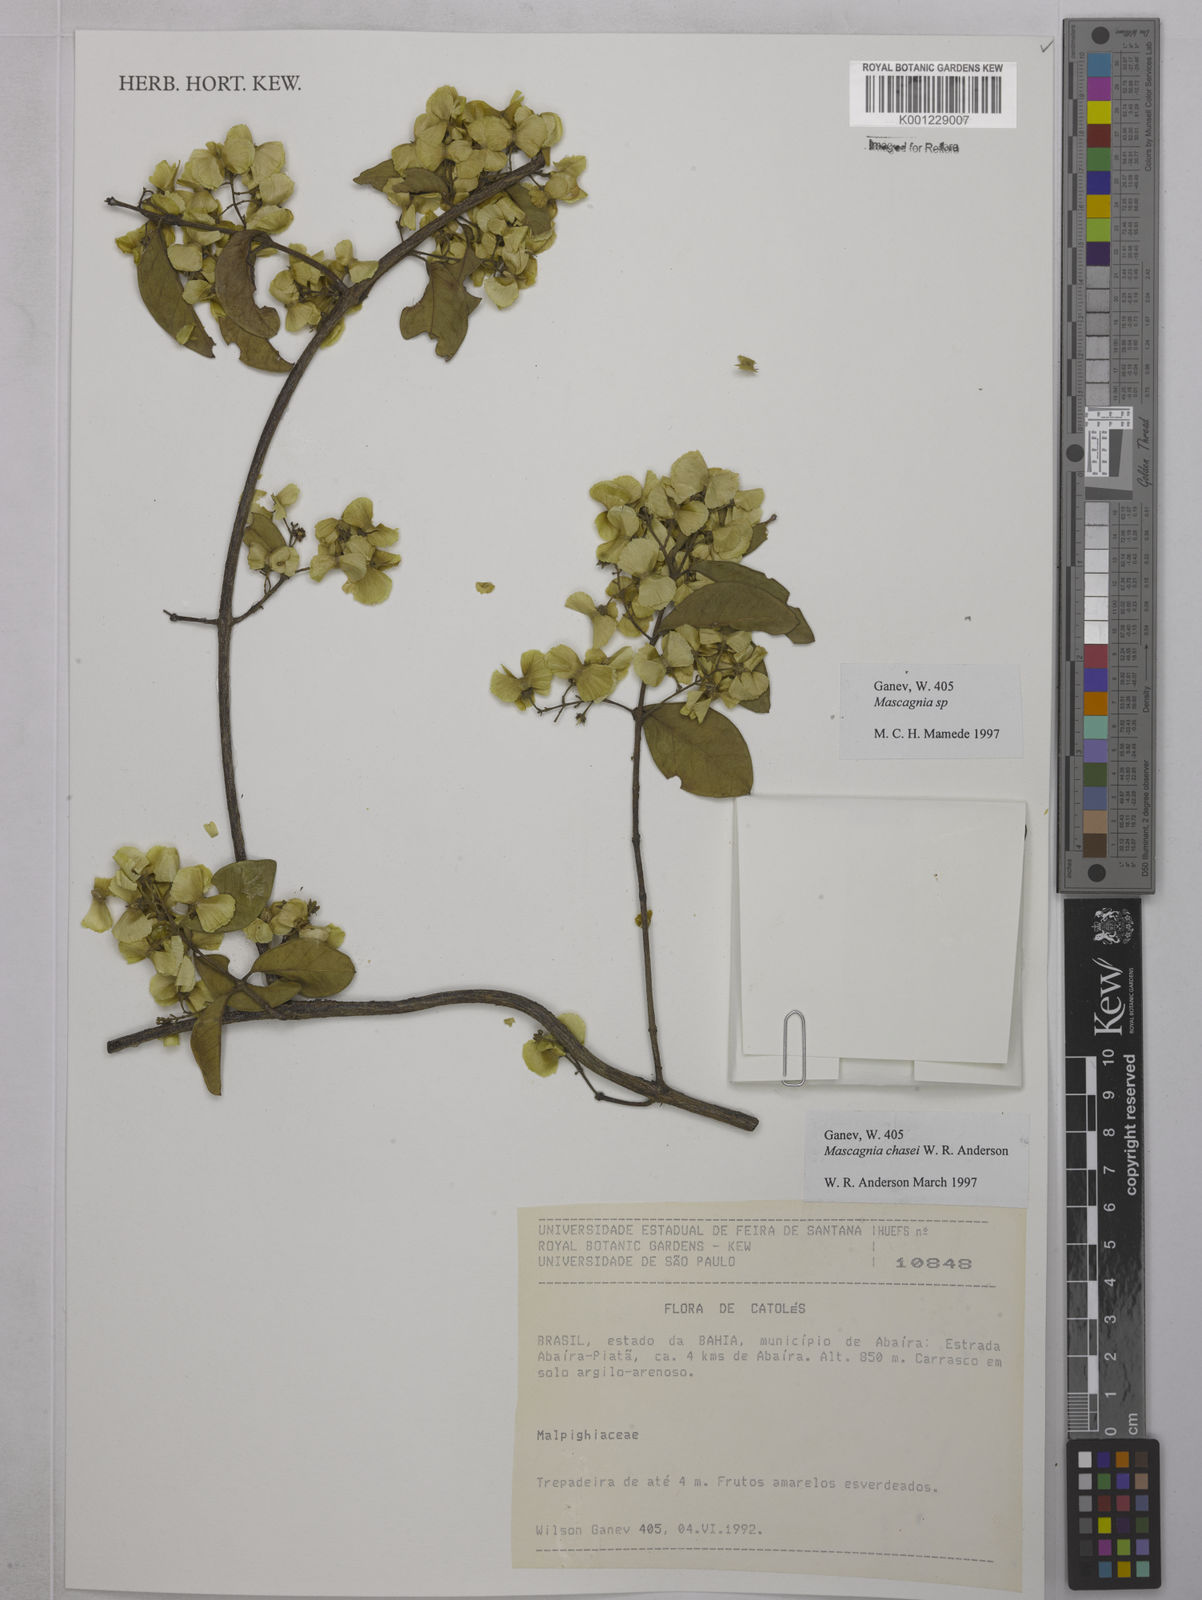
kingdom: Plantae
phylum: Tracheophyta
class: Magnoliopsida
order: Malpighiales
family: Malpighiaceae
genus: Carolus
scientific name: Carolus chasei
